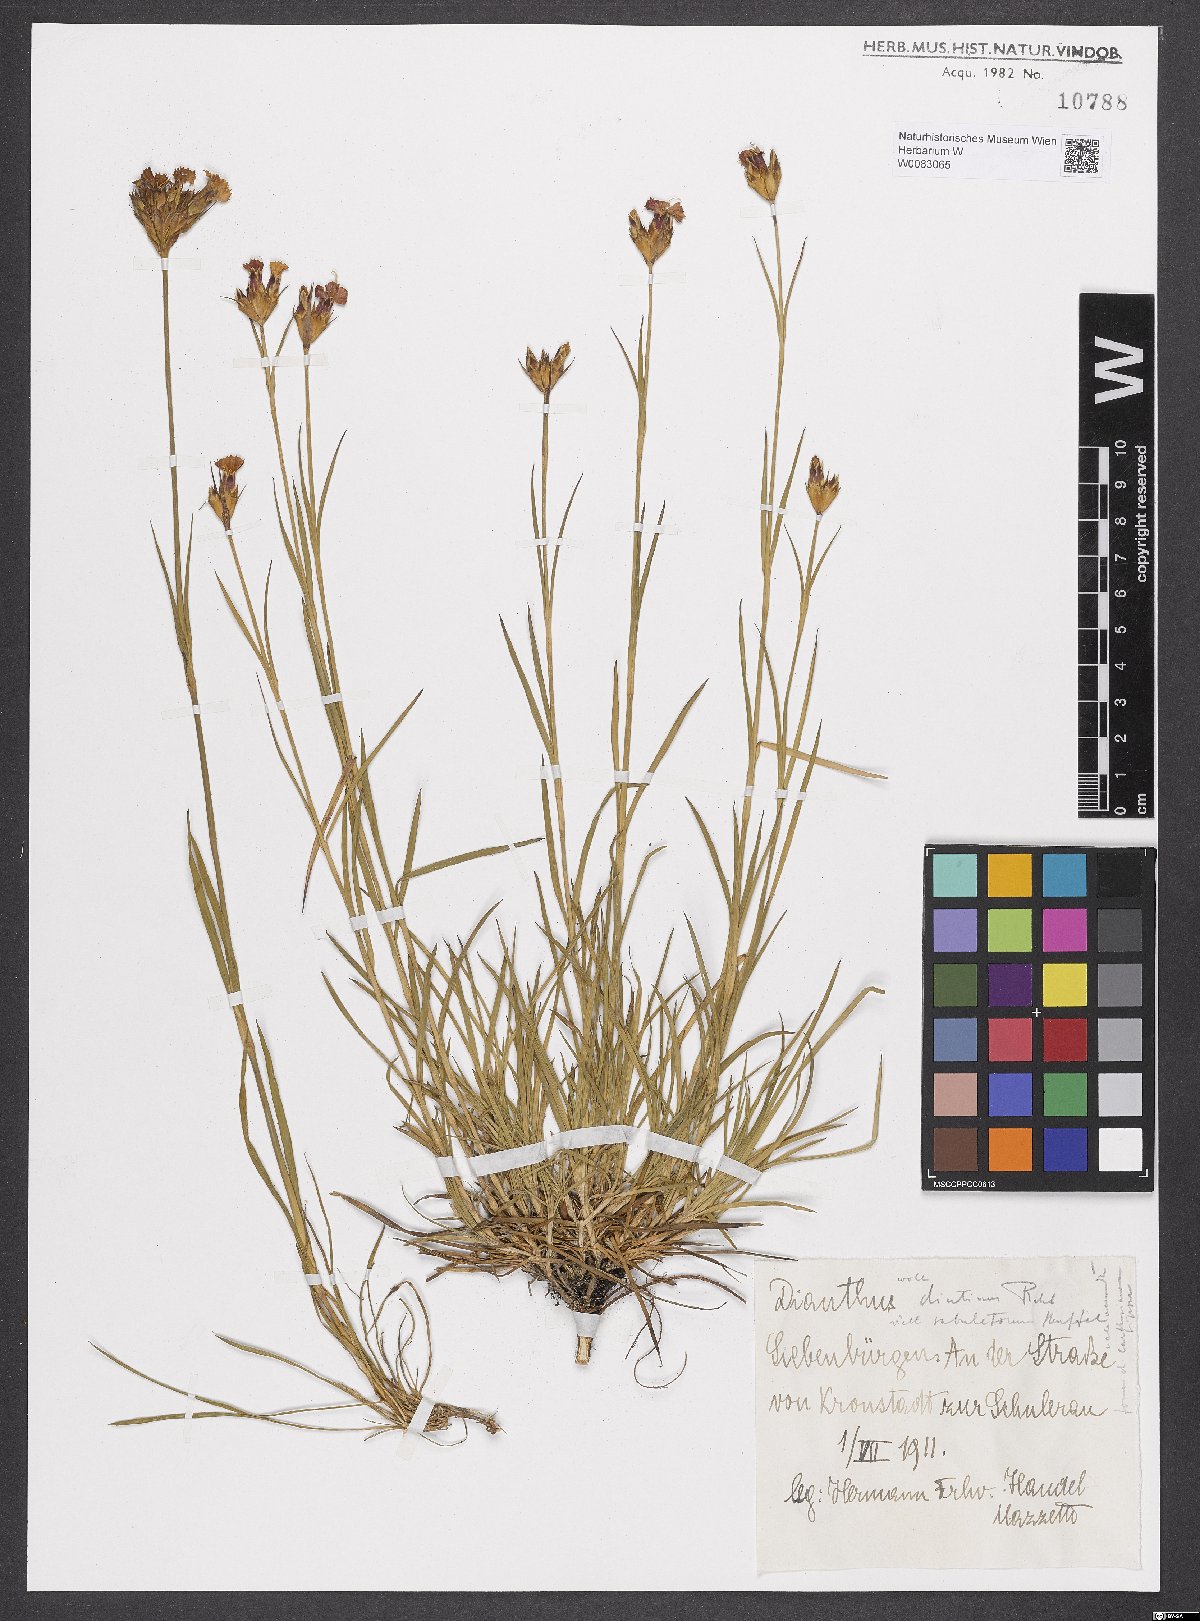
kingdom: Plantae
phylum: Tracheophyta
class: Magnoliopsida
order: Caryophyllales
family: Caryophyllaceae
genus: Dianthus
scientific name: Dianthus polymorphus
